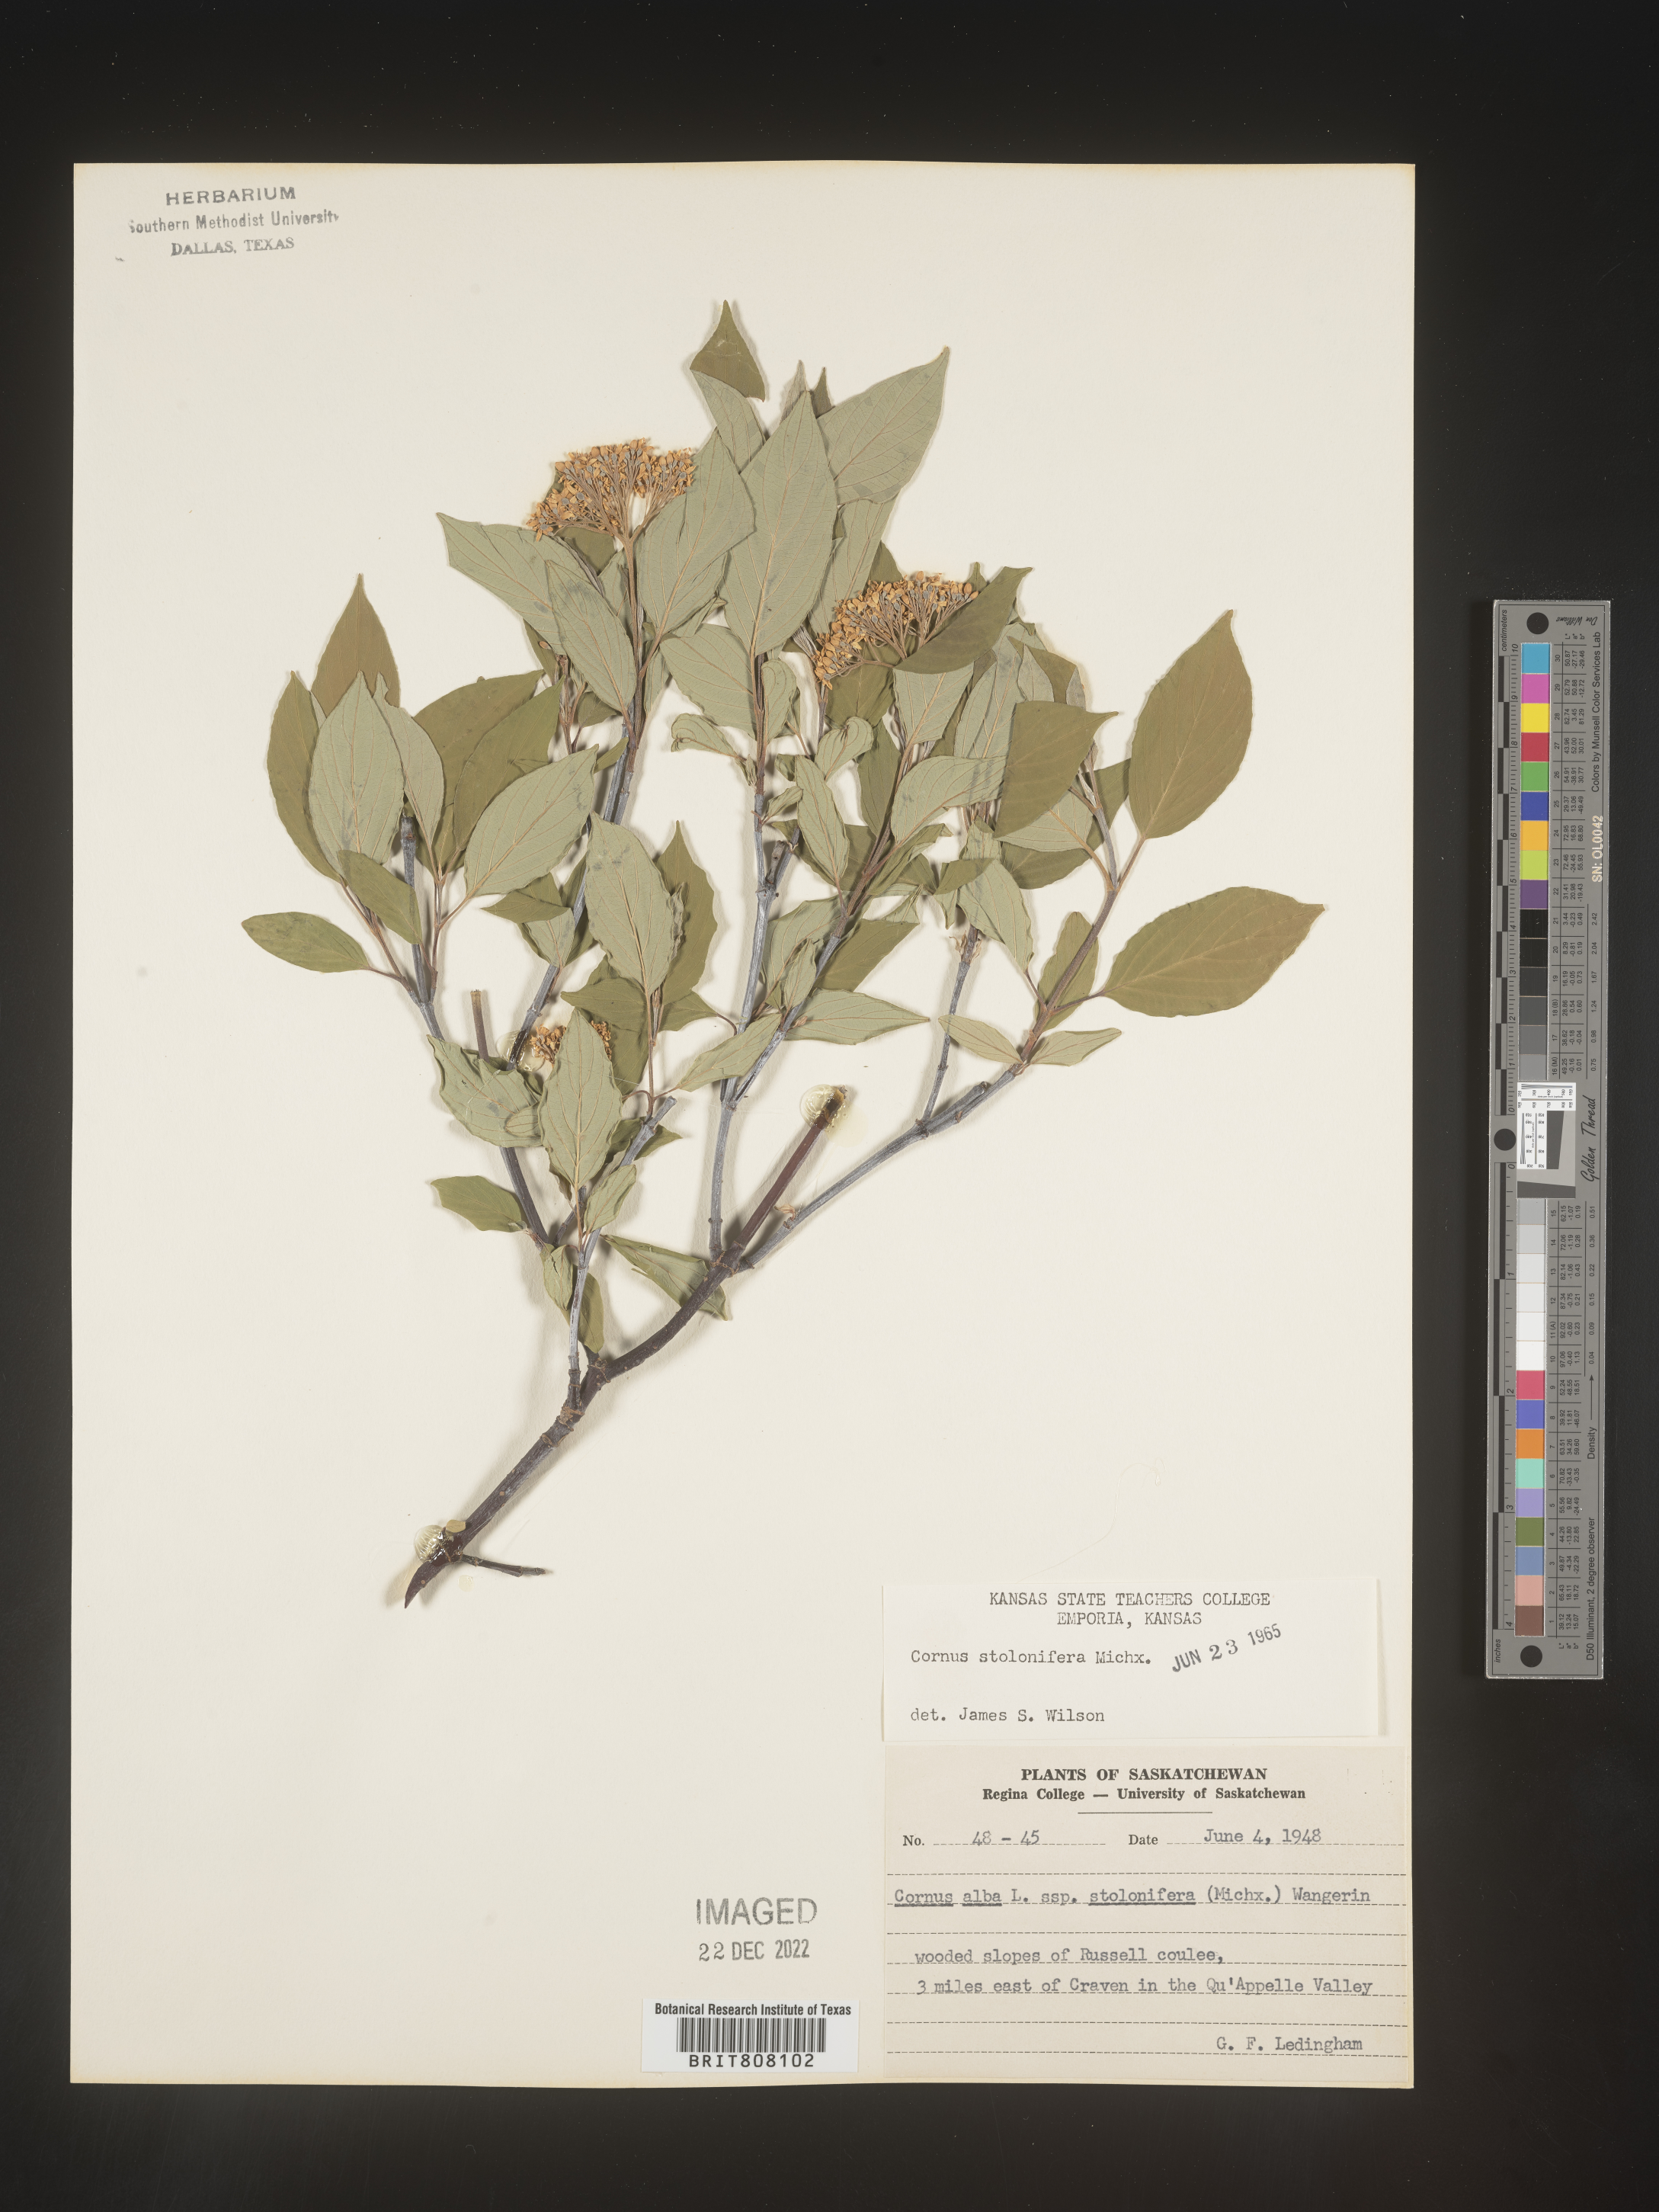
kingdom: Plantae
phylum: Tracheophyta
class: Magnoliopsida
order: Cornales
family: Cornaceae
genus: Cornus
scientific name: Cornus sericea
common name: Red-osier dogwood
